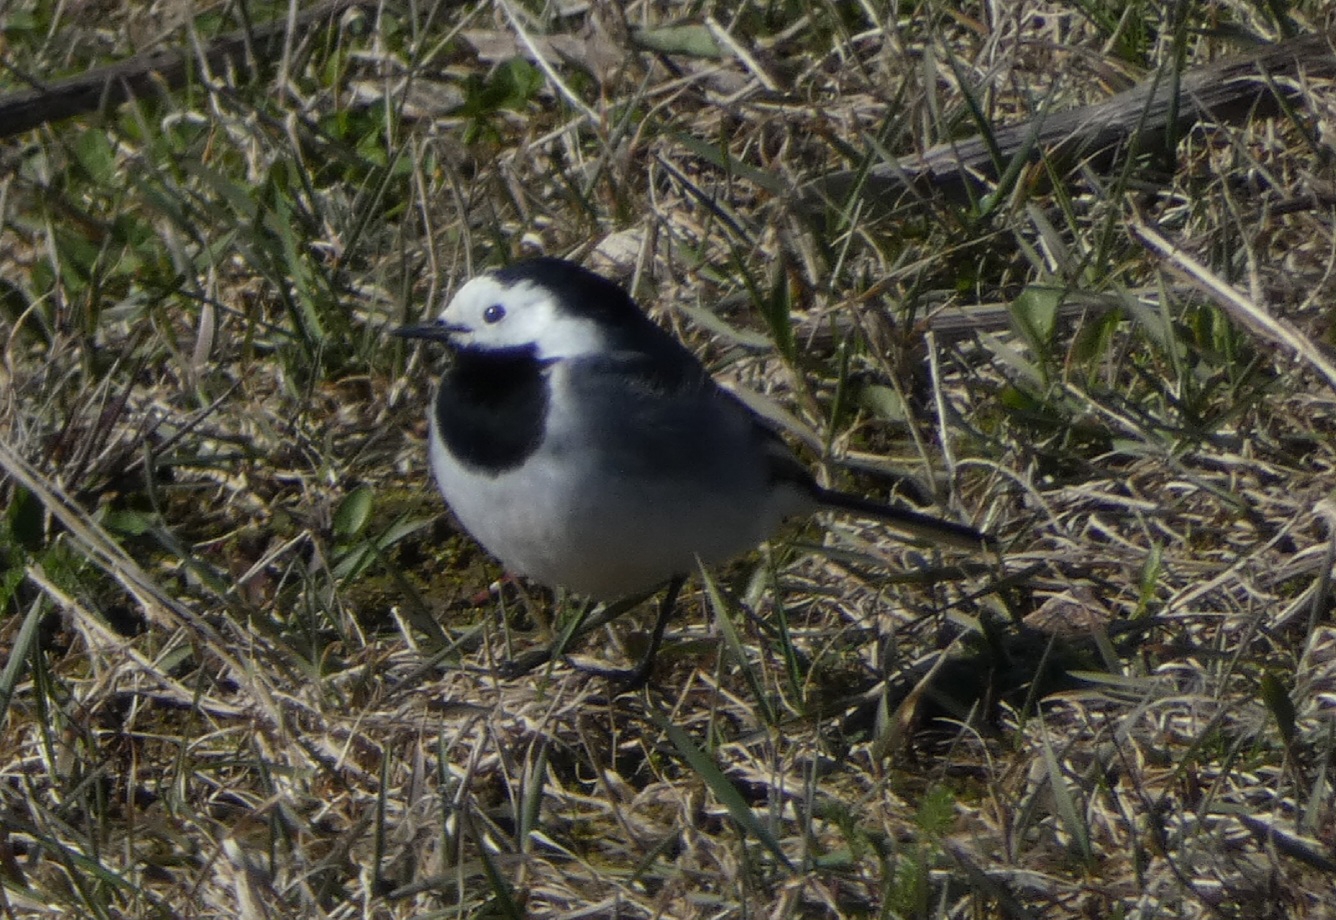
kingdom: Animalia
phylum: Chordata
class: Aves
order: Passeriformes
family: Motacillidae
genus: Motacilla
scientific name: Motacilla alba
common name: Hvid vipstjert
